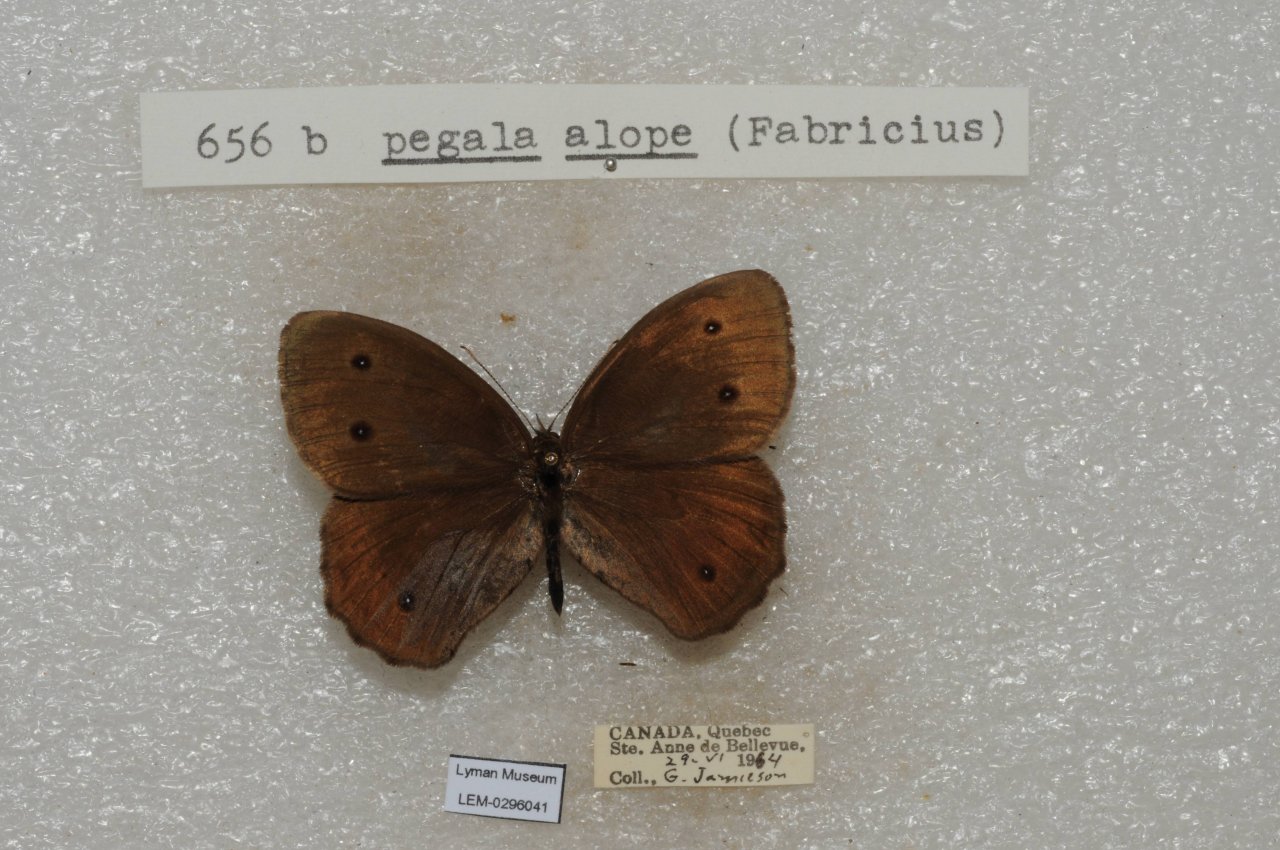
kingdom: Animalia
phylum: Arthropoda
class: Insecta
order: Lepidoptera
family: Nymphalidae
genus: Cercyonis
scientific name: Cercyonis pegala
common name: Common Wood-Nymph
